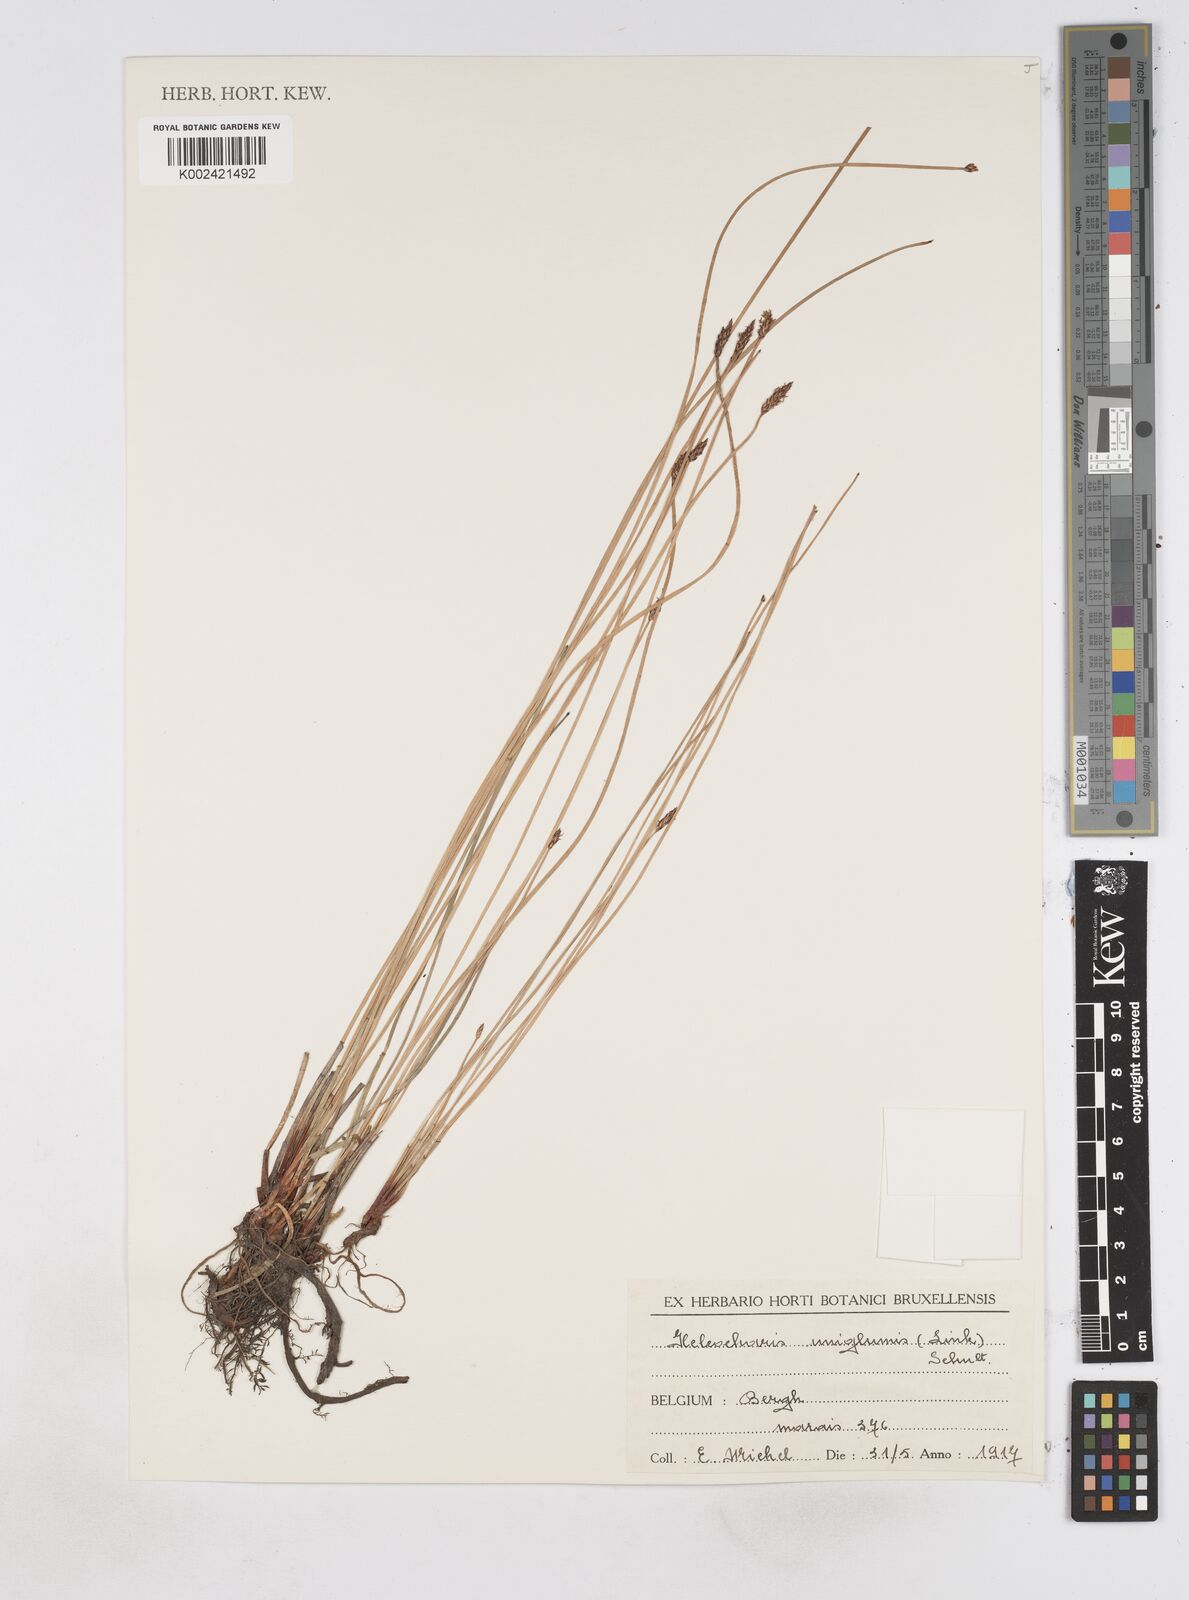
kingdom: Plantae
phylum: Tracheophyta
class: Liliopsida
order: Poales
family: Cyperaceae
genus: Eleocharis
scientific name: Eleocharis uniglumis
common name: Slender spike-rush
